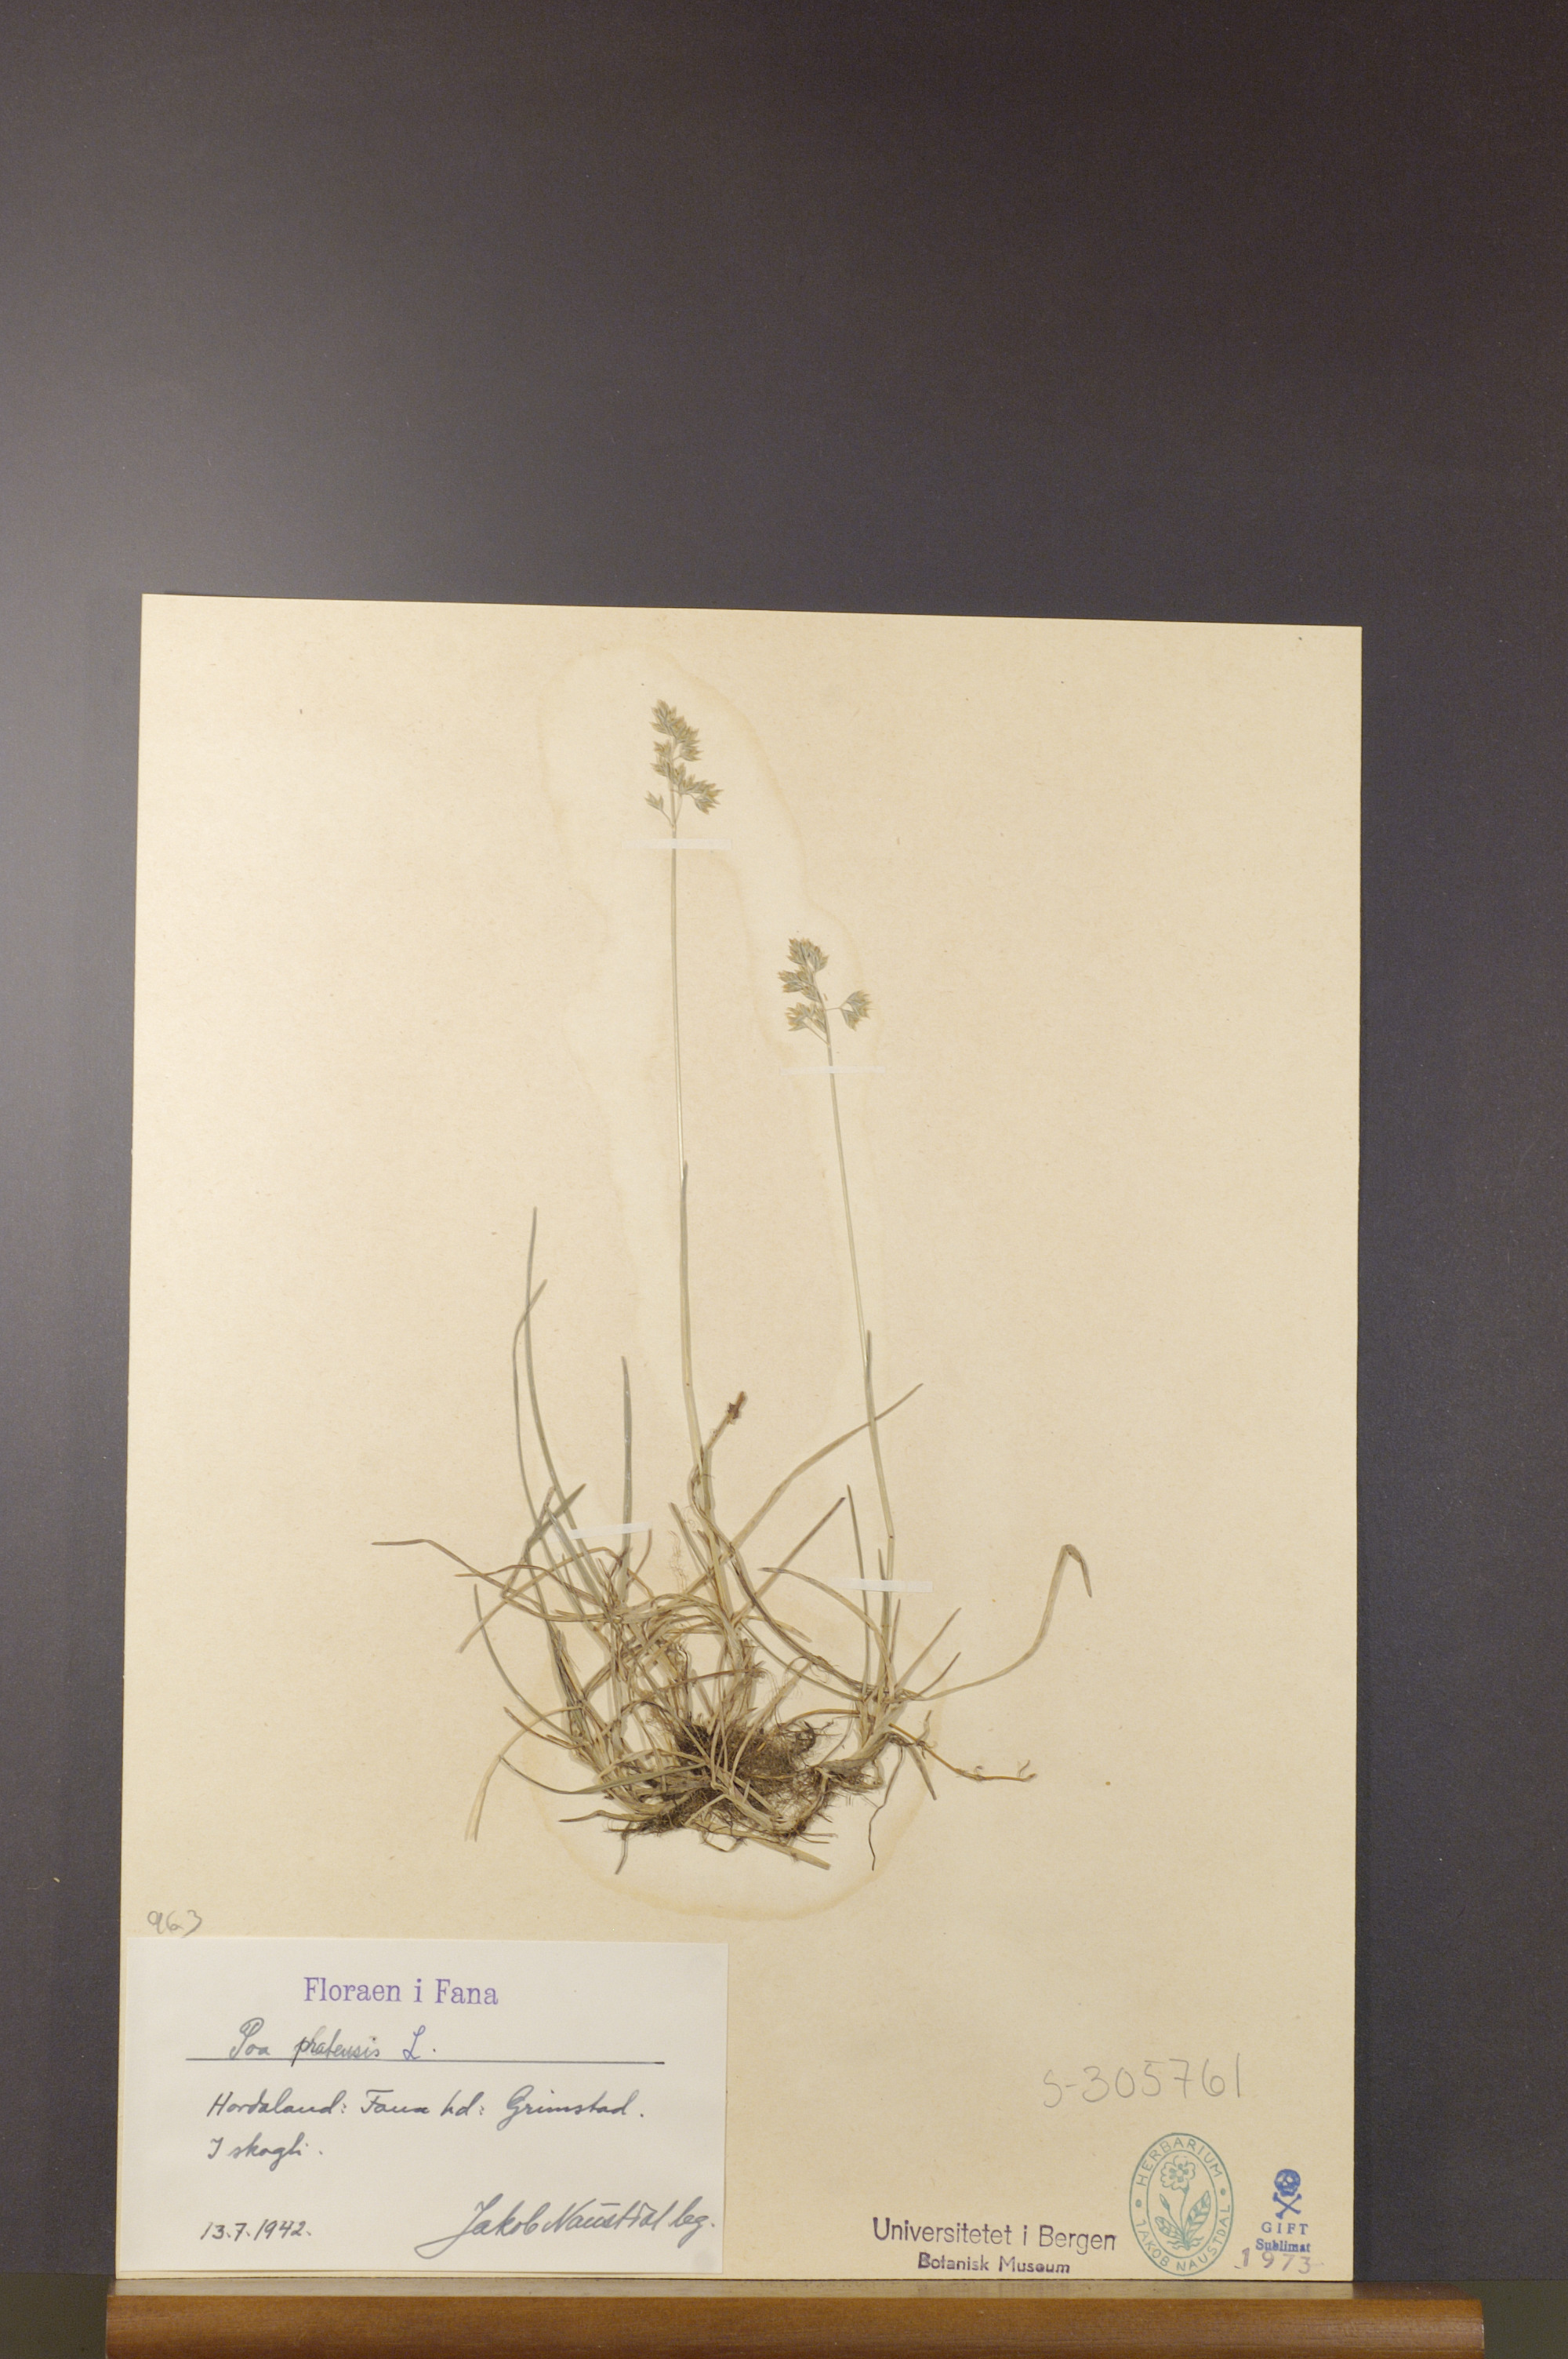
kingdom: Plantae
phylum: Tracheophyta
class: Liliopsida
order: Poales
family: Poaceae
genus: Poa
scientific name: Poa pratensis
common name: Kentucky bluegrass
